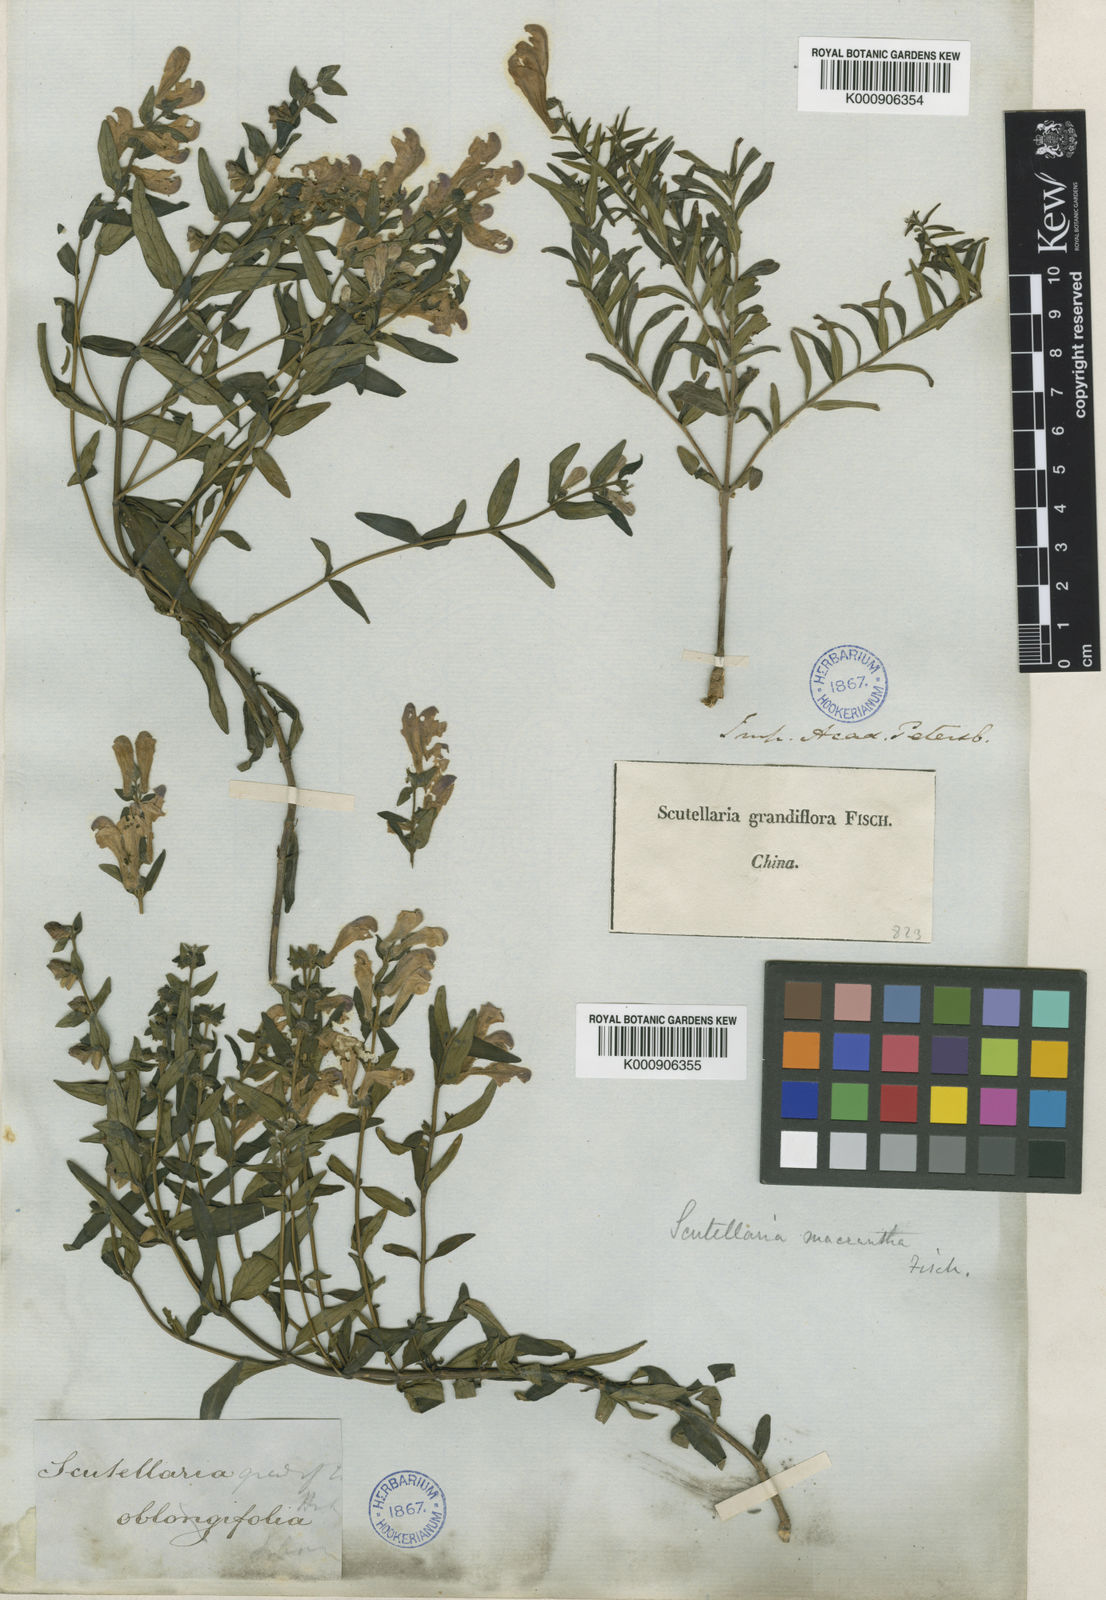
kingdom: Plantae
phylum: Tracheophyta
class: Magnoliopsida
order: Lamiales
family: Lamiaceae
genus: Scutellaria
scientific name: Scutellaria baicalensis
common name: Baikal skullcap
